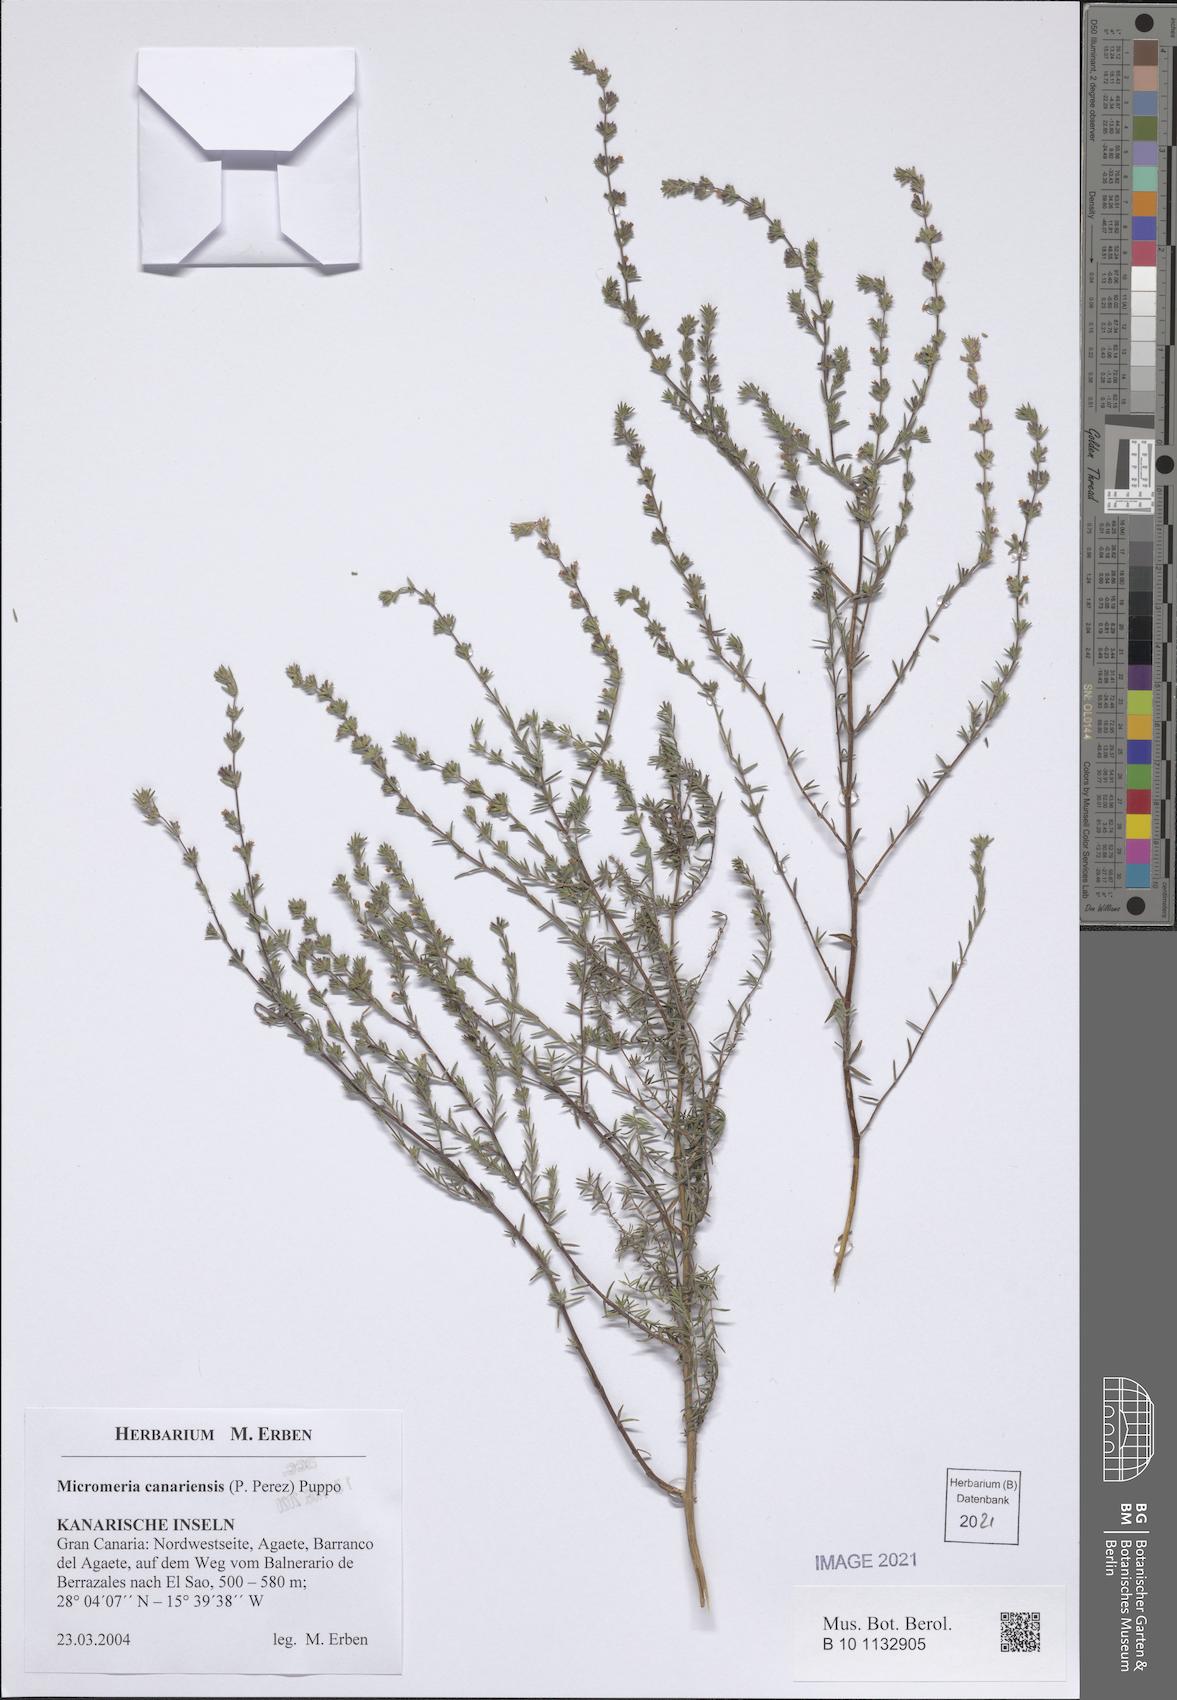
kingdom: Plantae
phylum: Tracheophyta
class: Magnoliopsida
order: Lamiales
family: Lamiaceae
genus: Micromeria
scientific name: Micromeria canariensis
